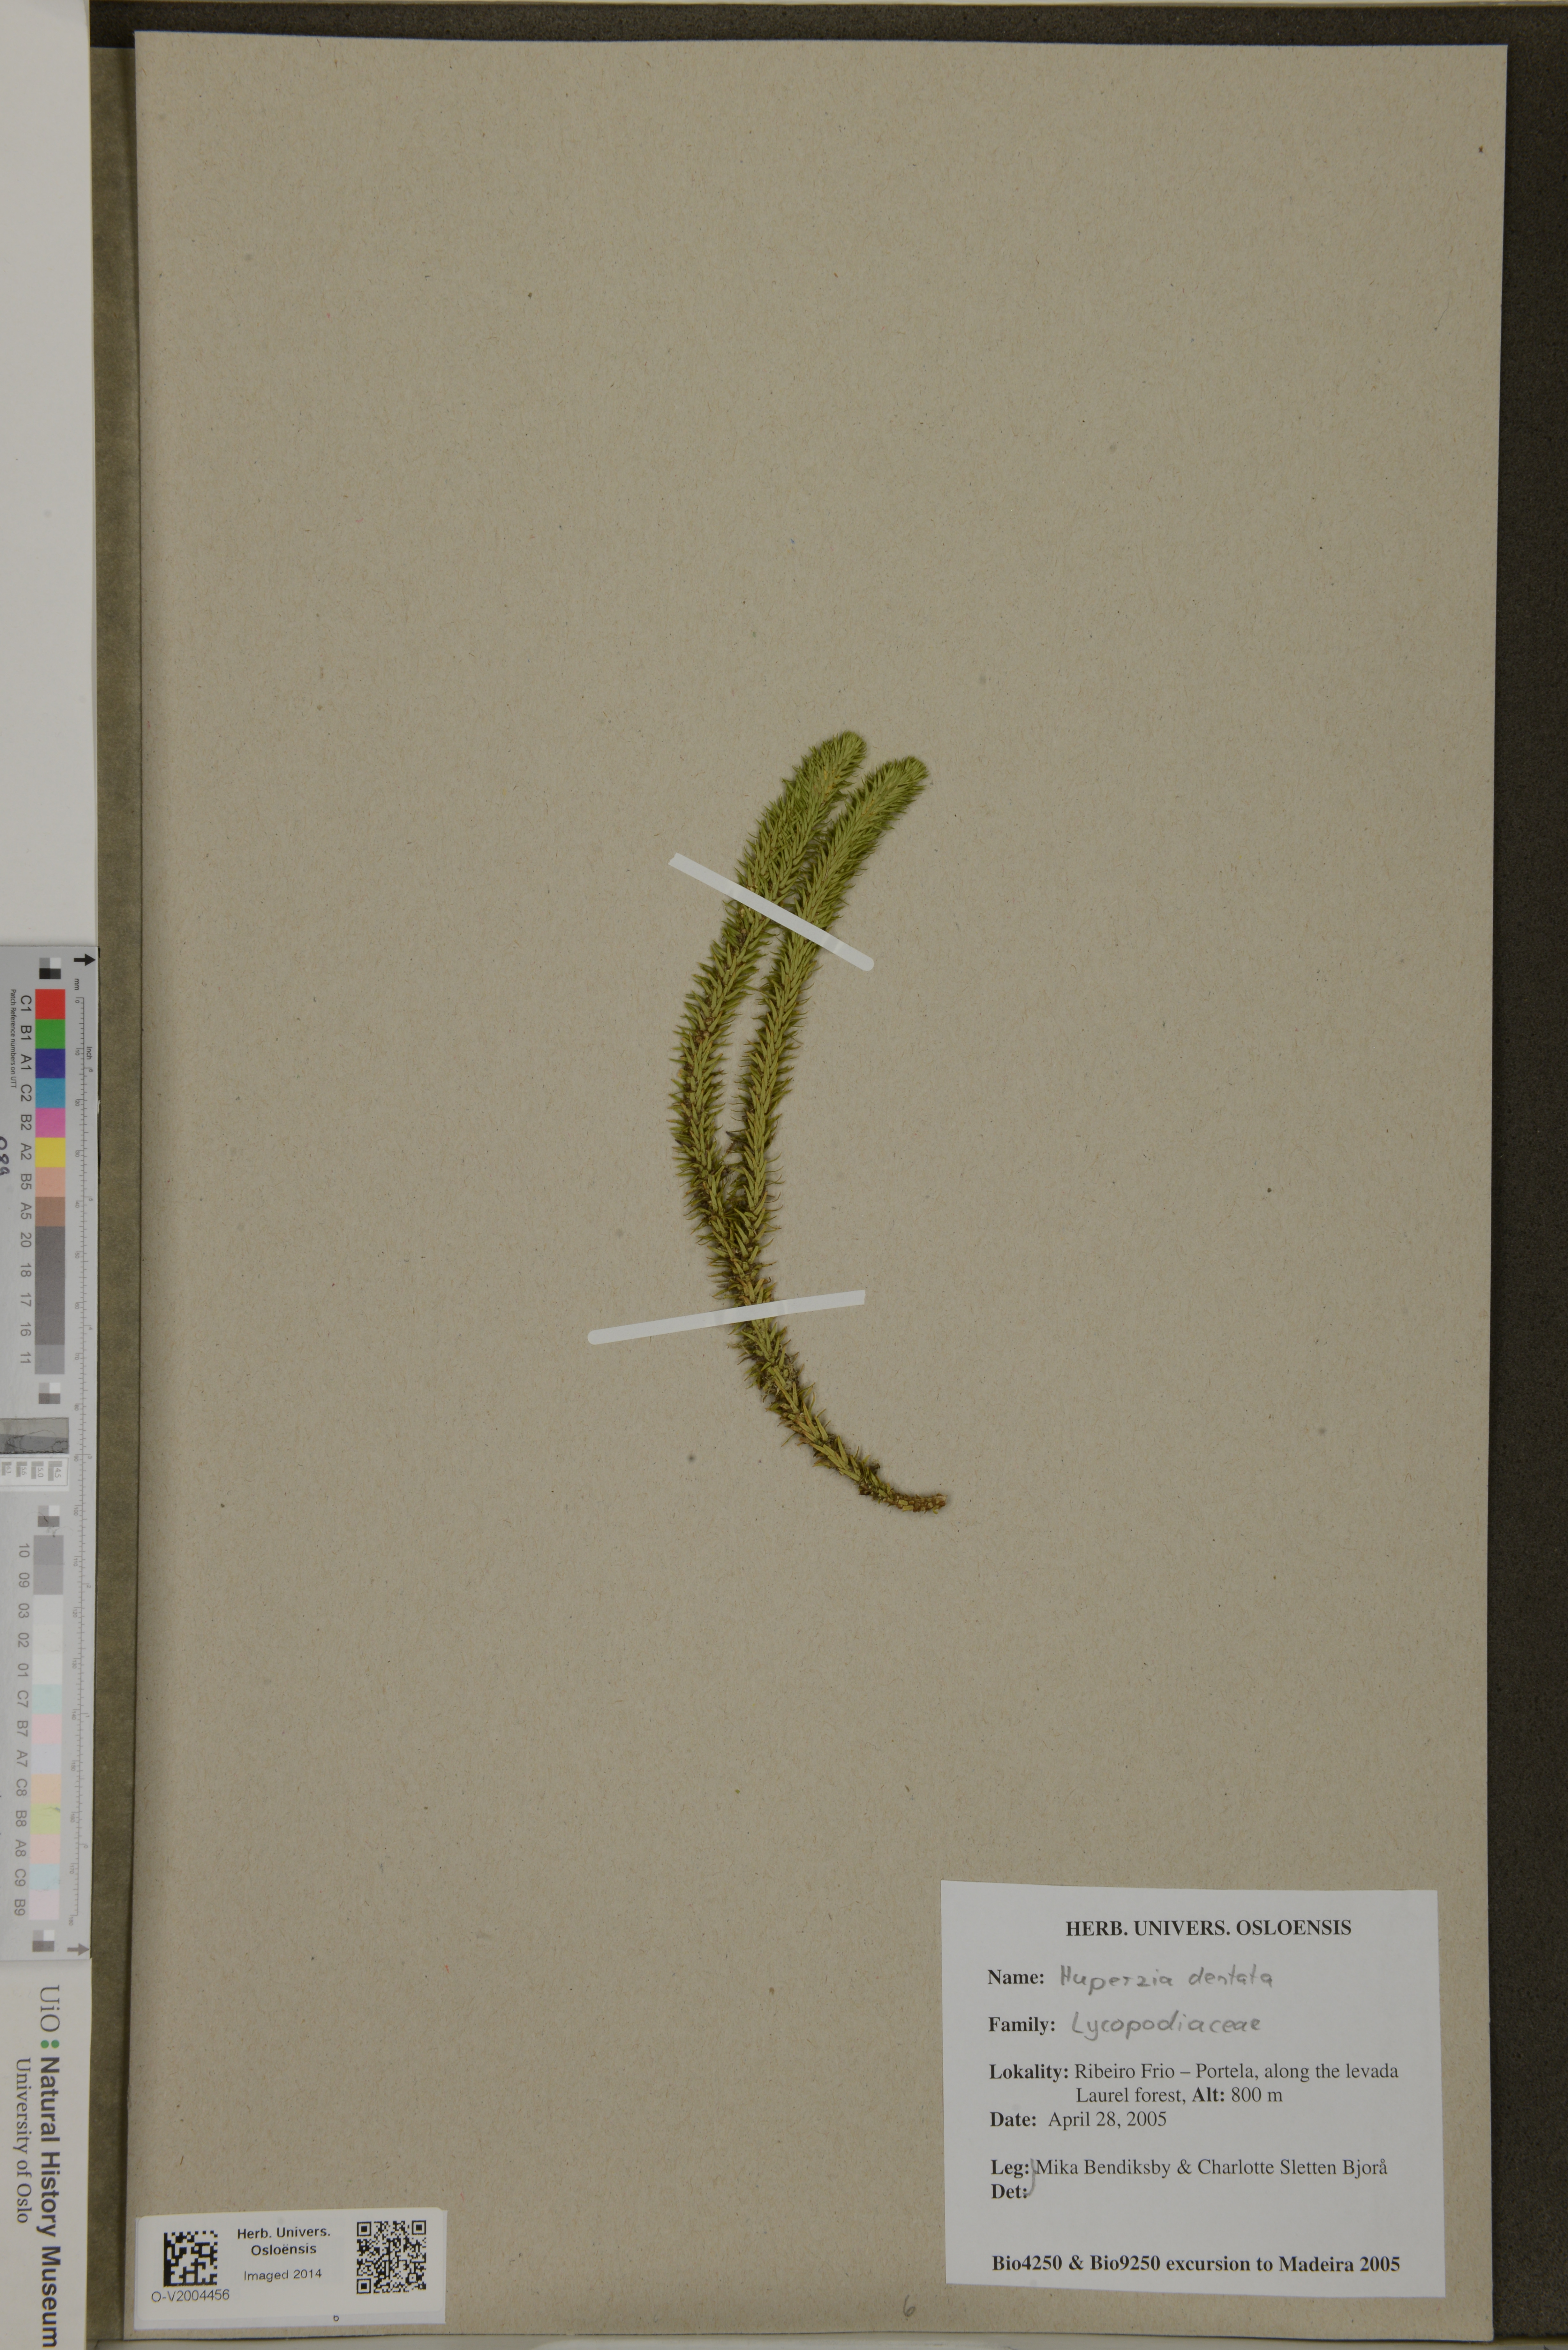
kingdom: Plantae
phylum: Tracheophyta
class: Lycopodiopsida
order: Lycopodiales
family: Lycopodiaceae
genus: Phlegmariurus
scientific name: Phlegmariurus dentatus
